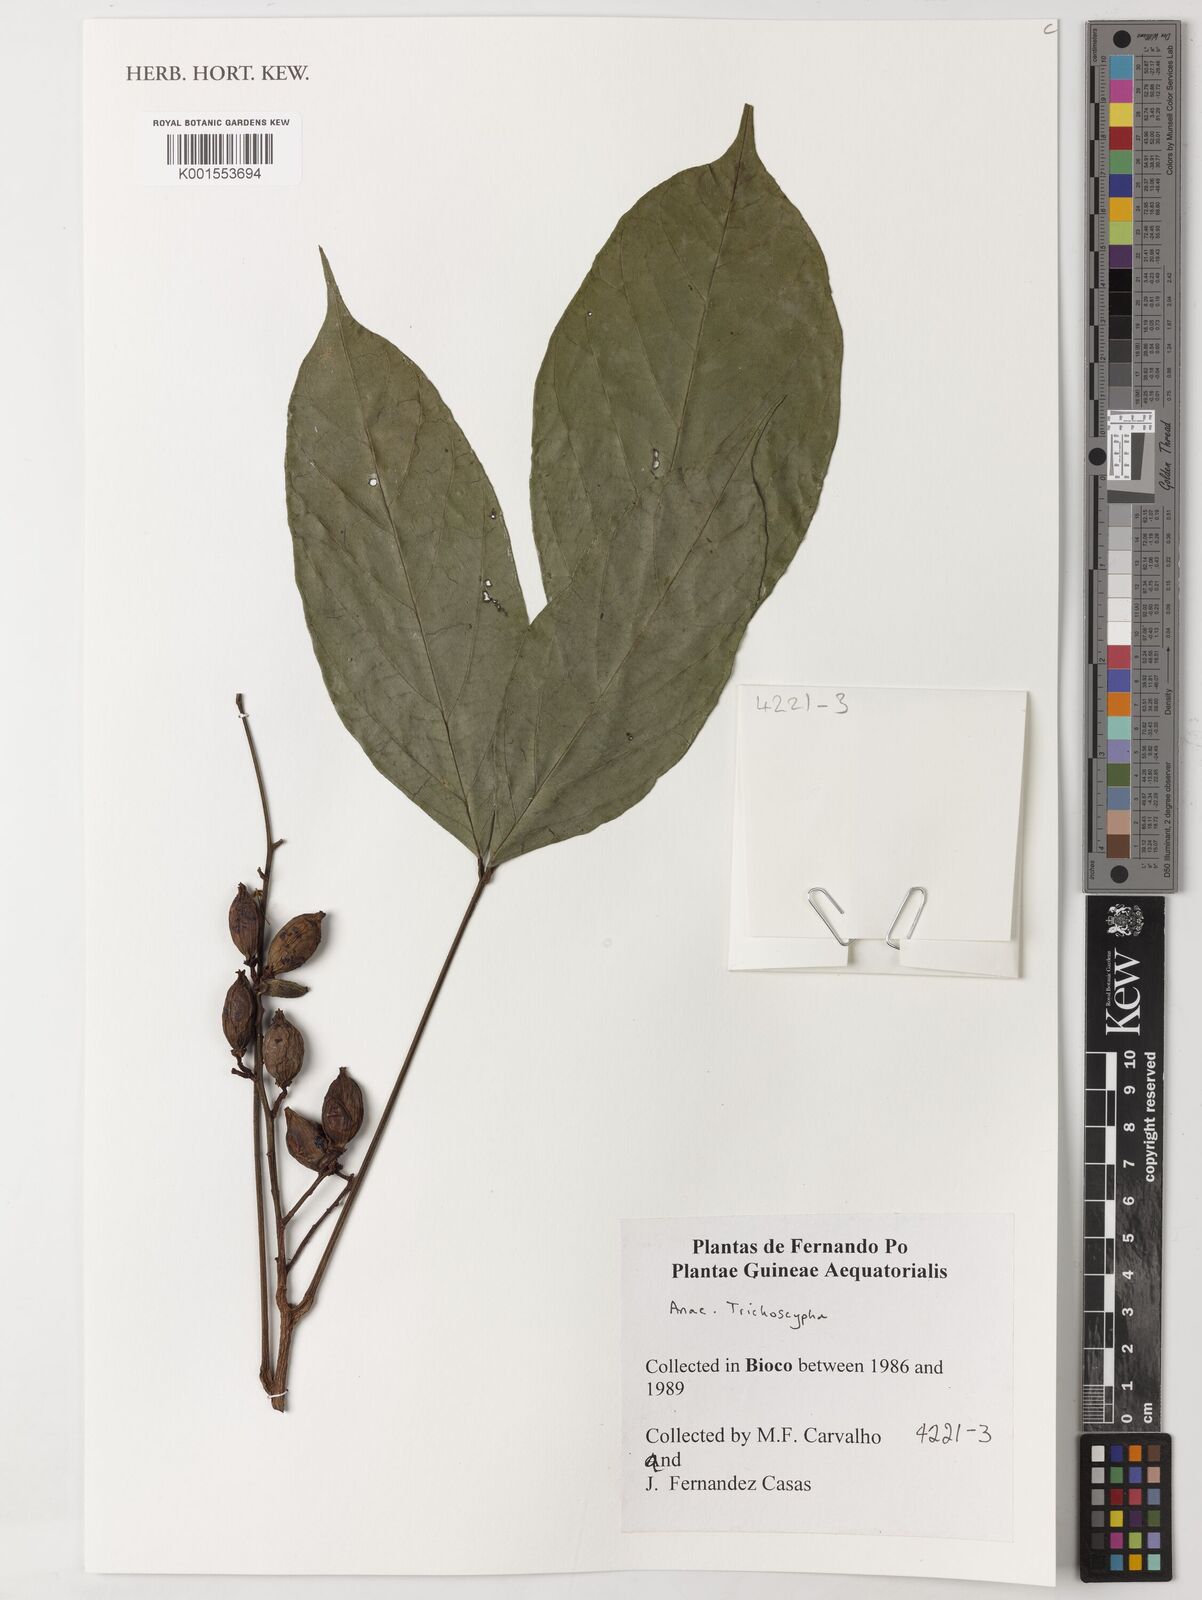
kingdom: Plantae
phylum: Tracheophyta
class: Magnoliopsida
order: Sapindales
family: Anacardiaceae
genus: Trichoscypha
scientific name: Trichoscypha
